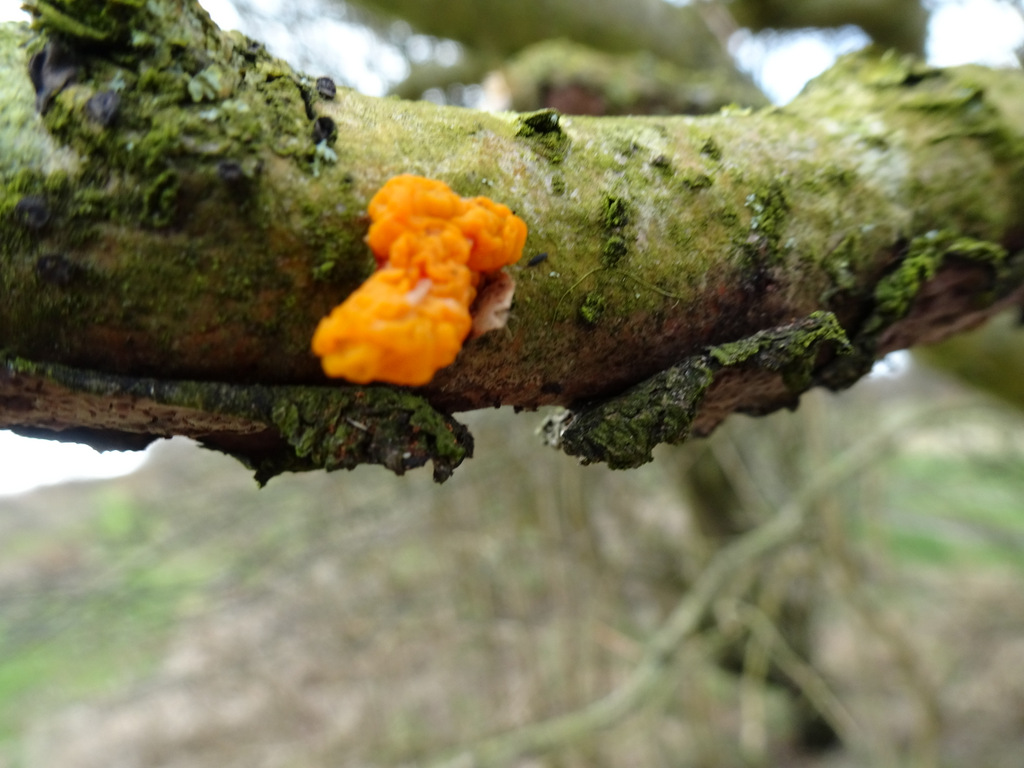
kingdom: Fungi
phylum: Basidiomycota
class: Tremellomycetes
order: Tremellales
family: Tremellaceae
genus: Tremella
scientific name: Tremella mesenterica
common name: gul bævresvamp
